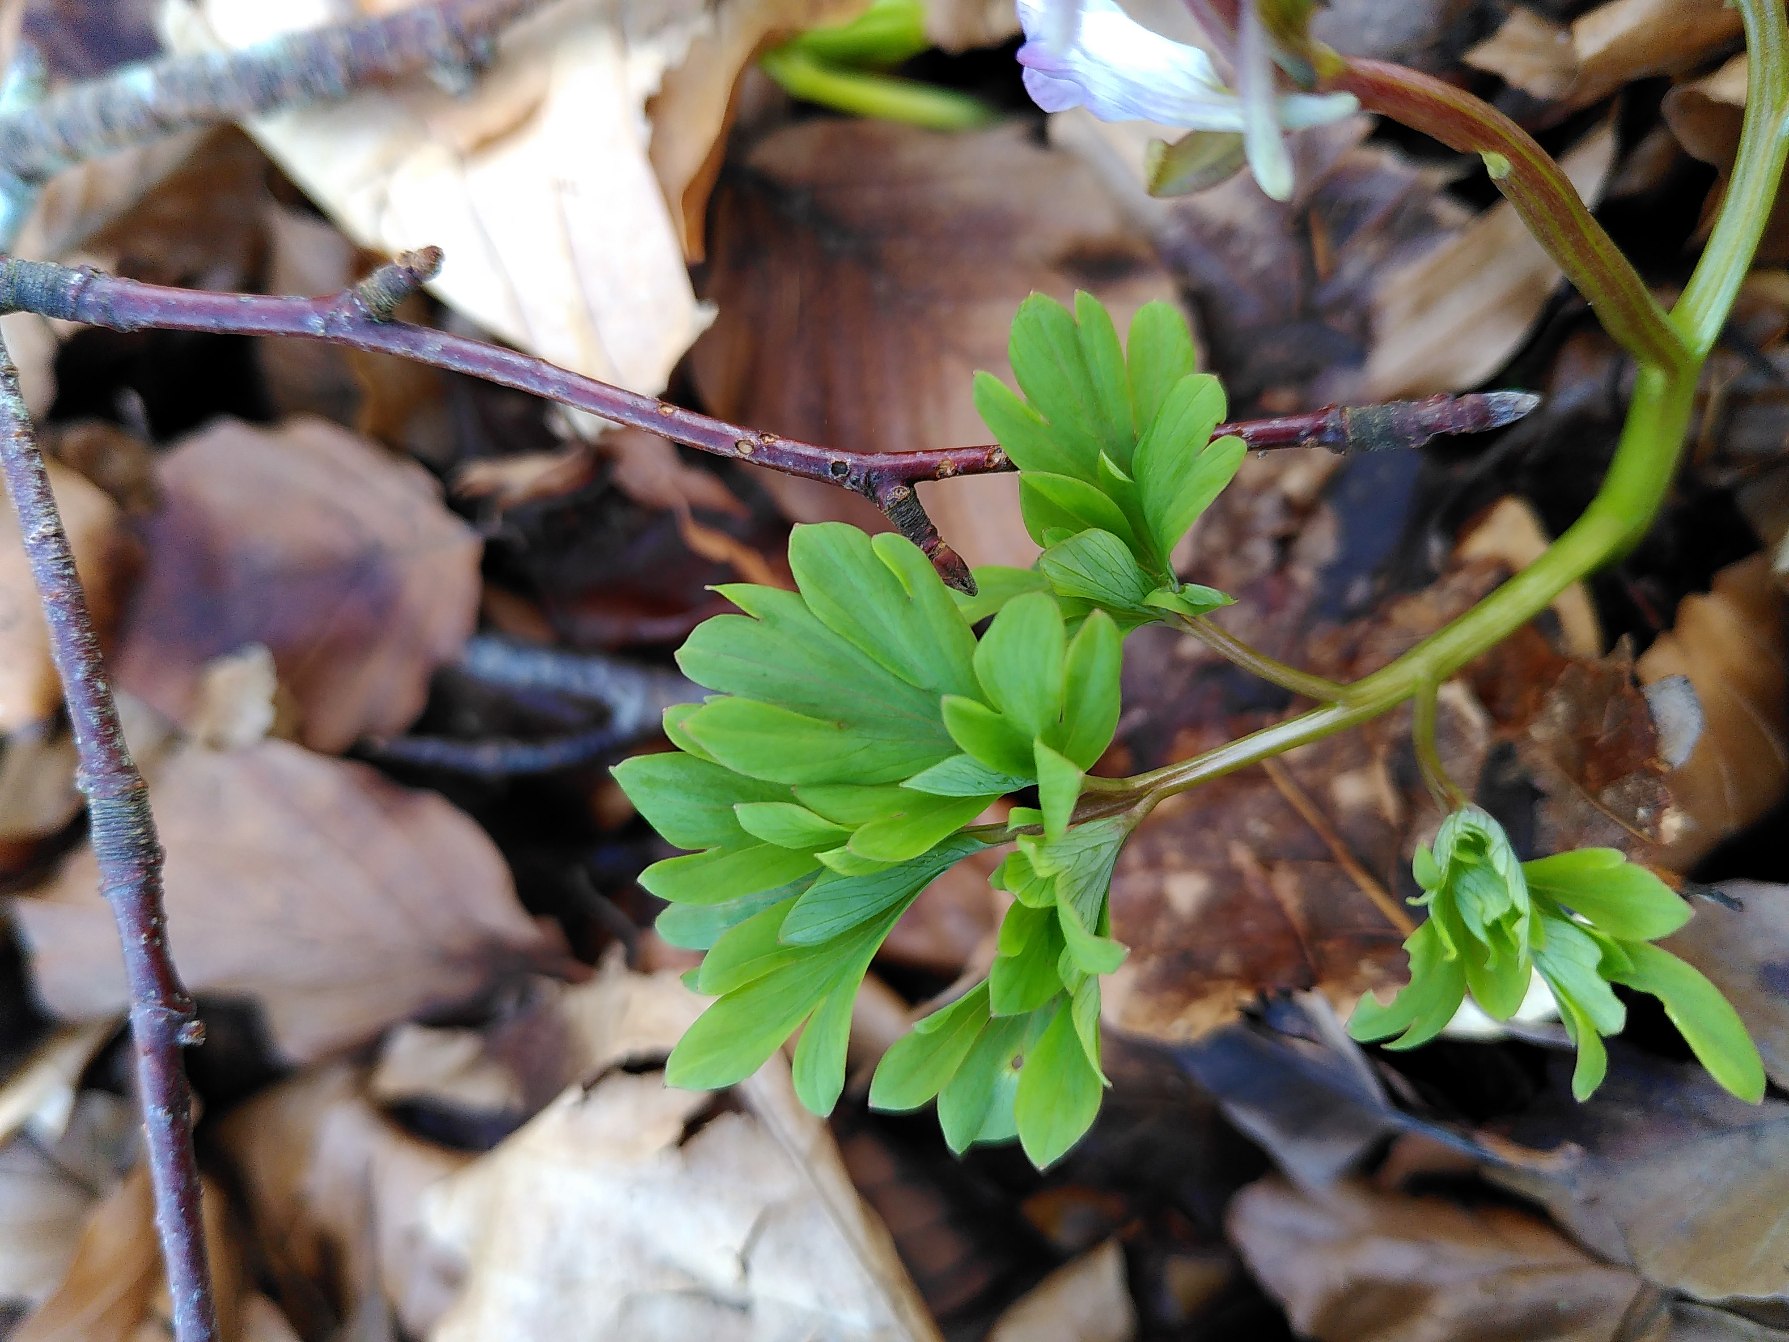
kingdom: Plantae
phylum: Tracheophyta
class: Magnoliopsida
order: Ranunculales
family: Papaveraceae
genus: Corydalis
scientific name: Corydalis cava
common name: Hulrodet lærkespore
